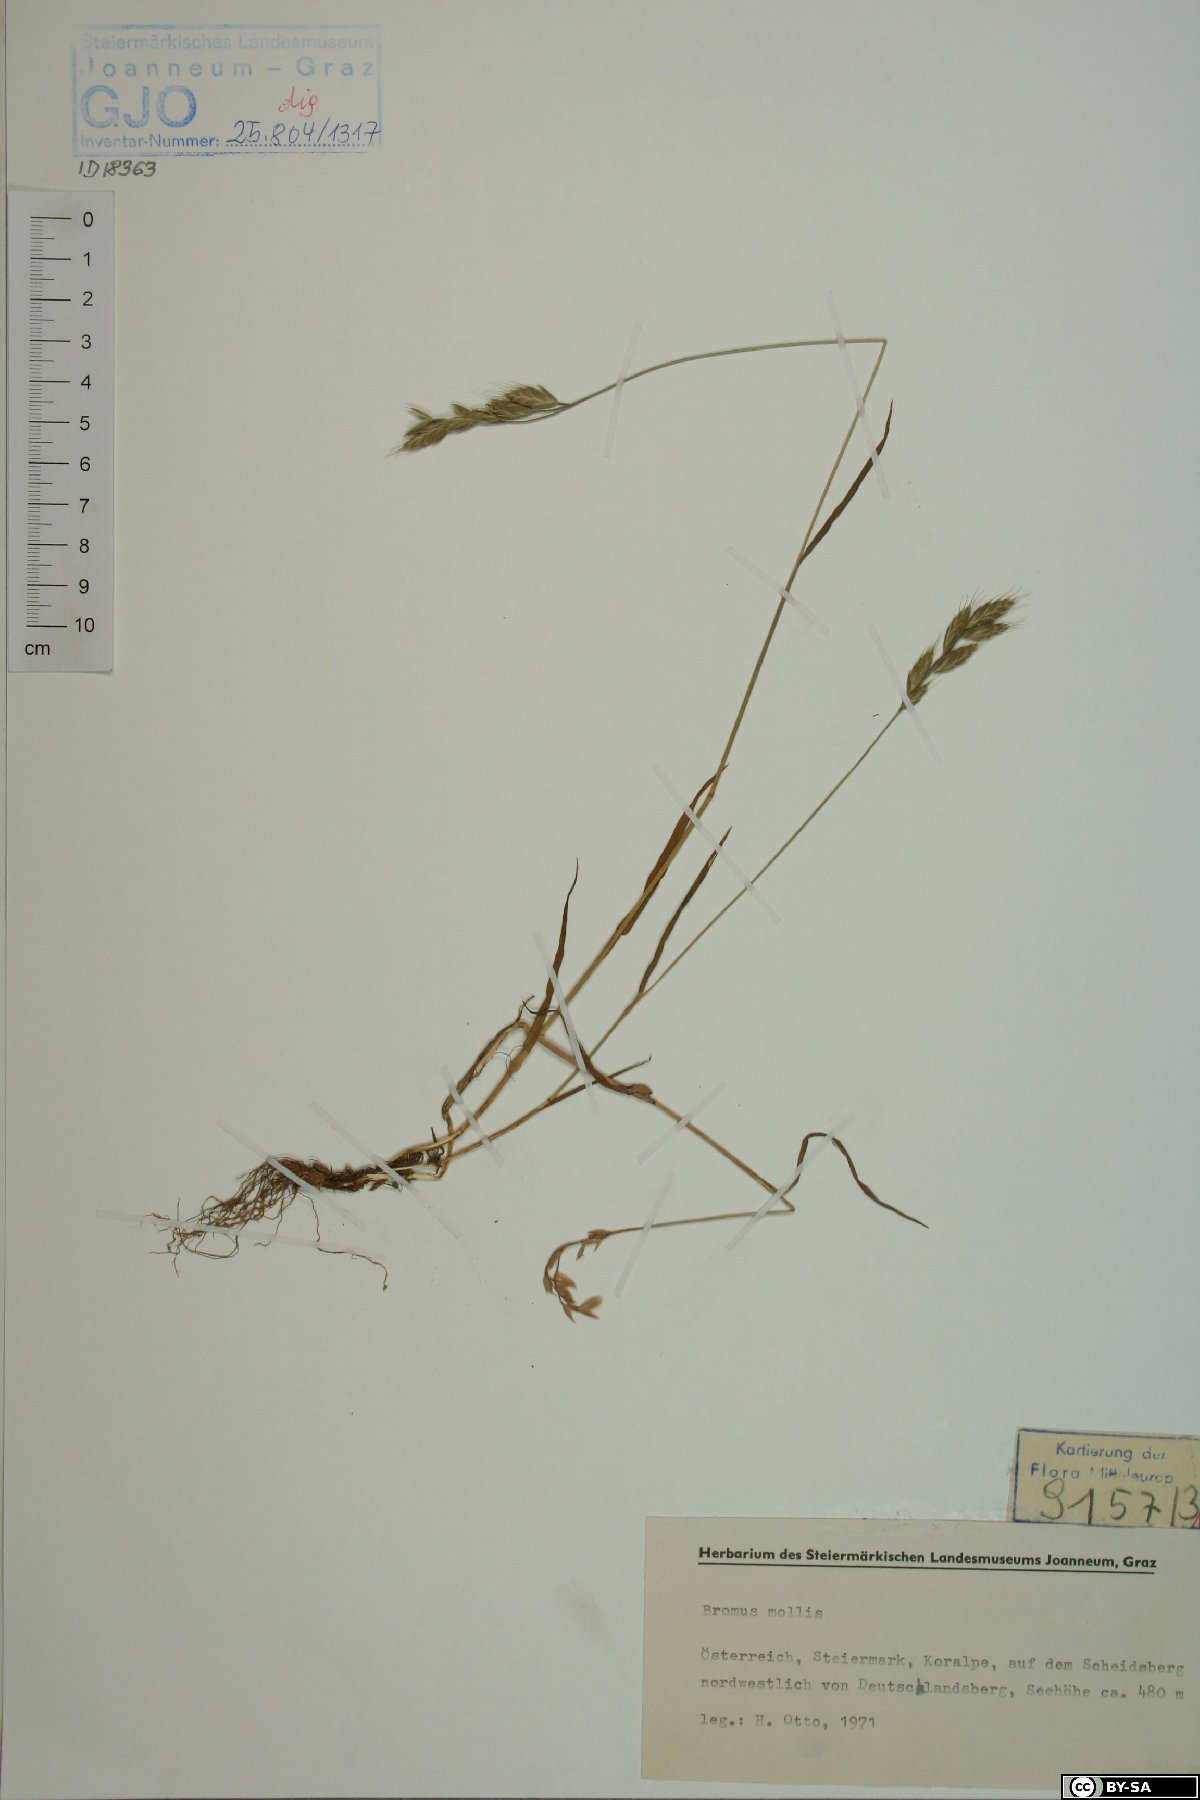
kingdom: Plantae
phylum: Tracheophyta
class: Liliopsida
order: Poales
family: Poaceae
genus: Bromus
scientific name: Bromus hordeaceus
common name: Soft brome
